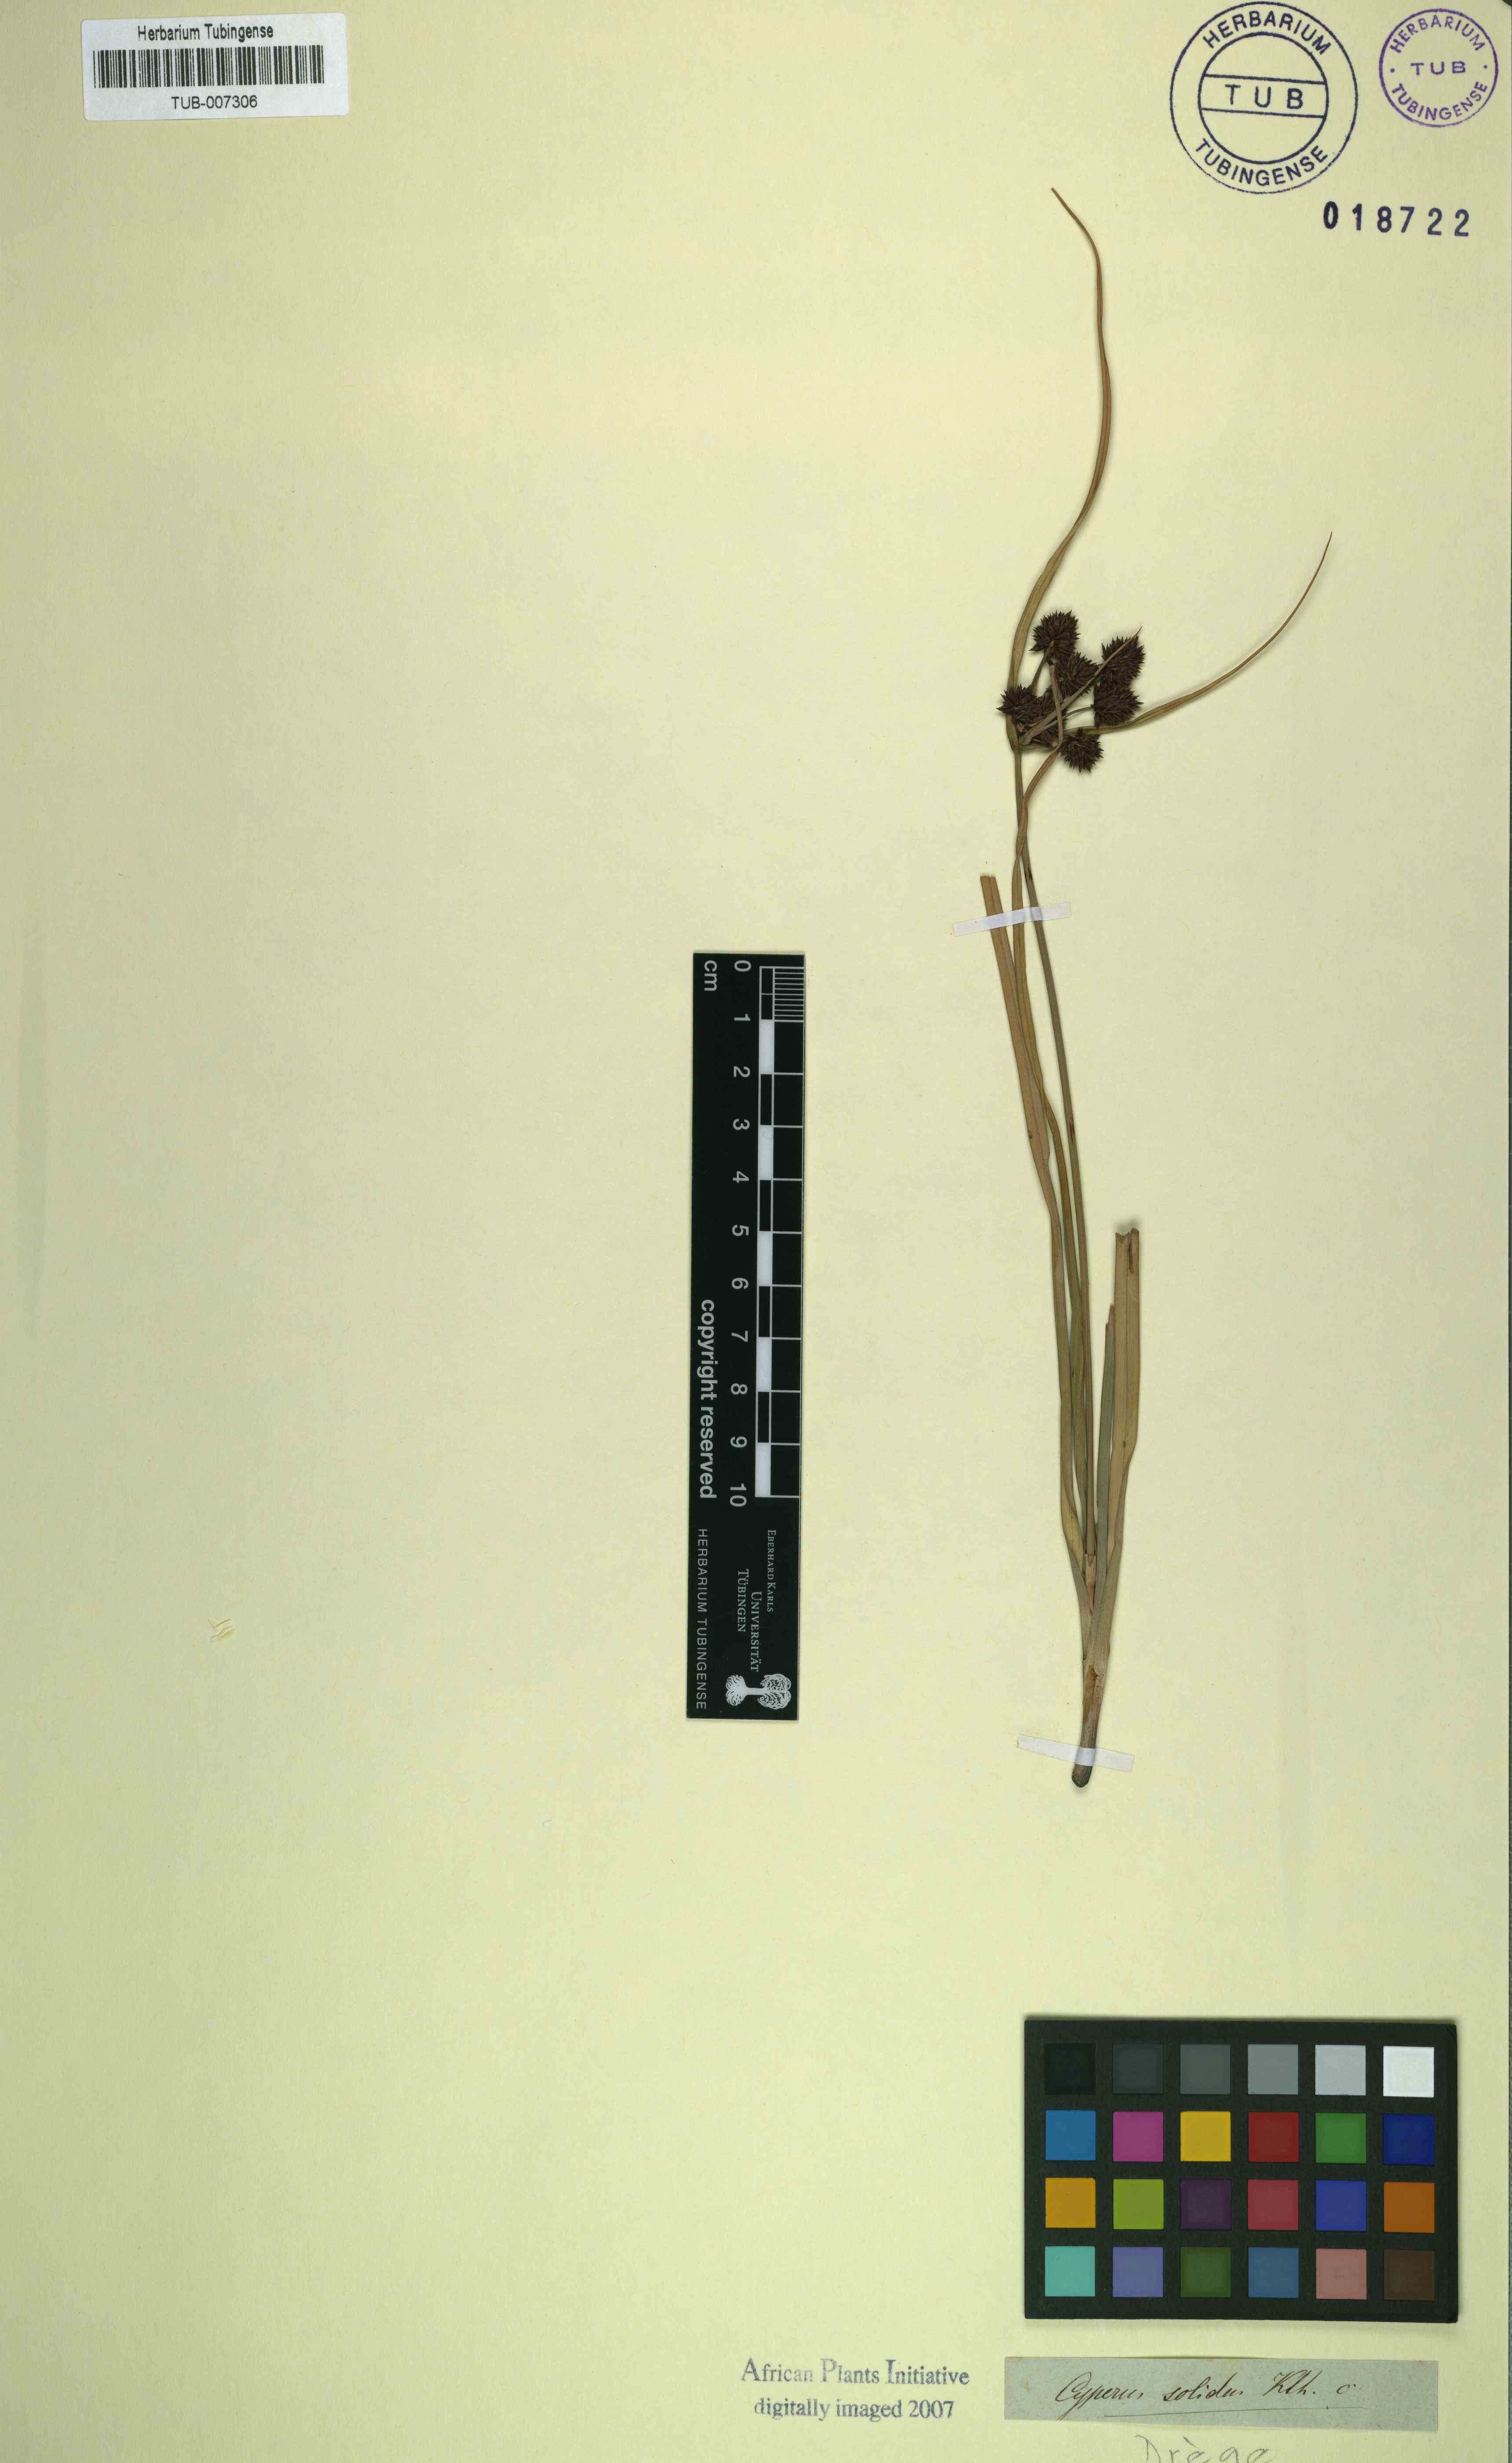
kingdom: Plantae
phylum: Tracheophyta
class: Liliopsida
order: Poales
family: Cyperaceae
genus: Cyperus
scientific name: Cyperus tabularis
